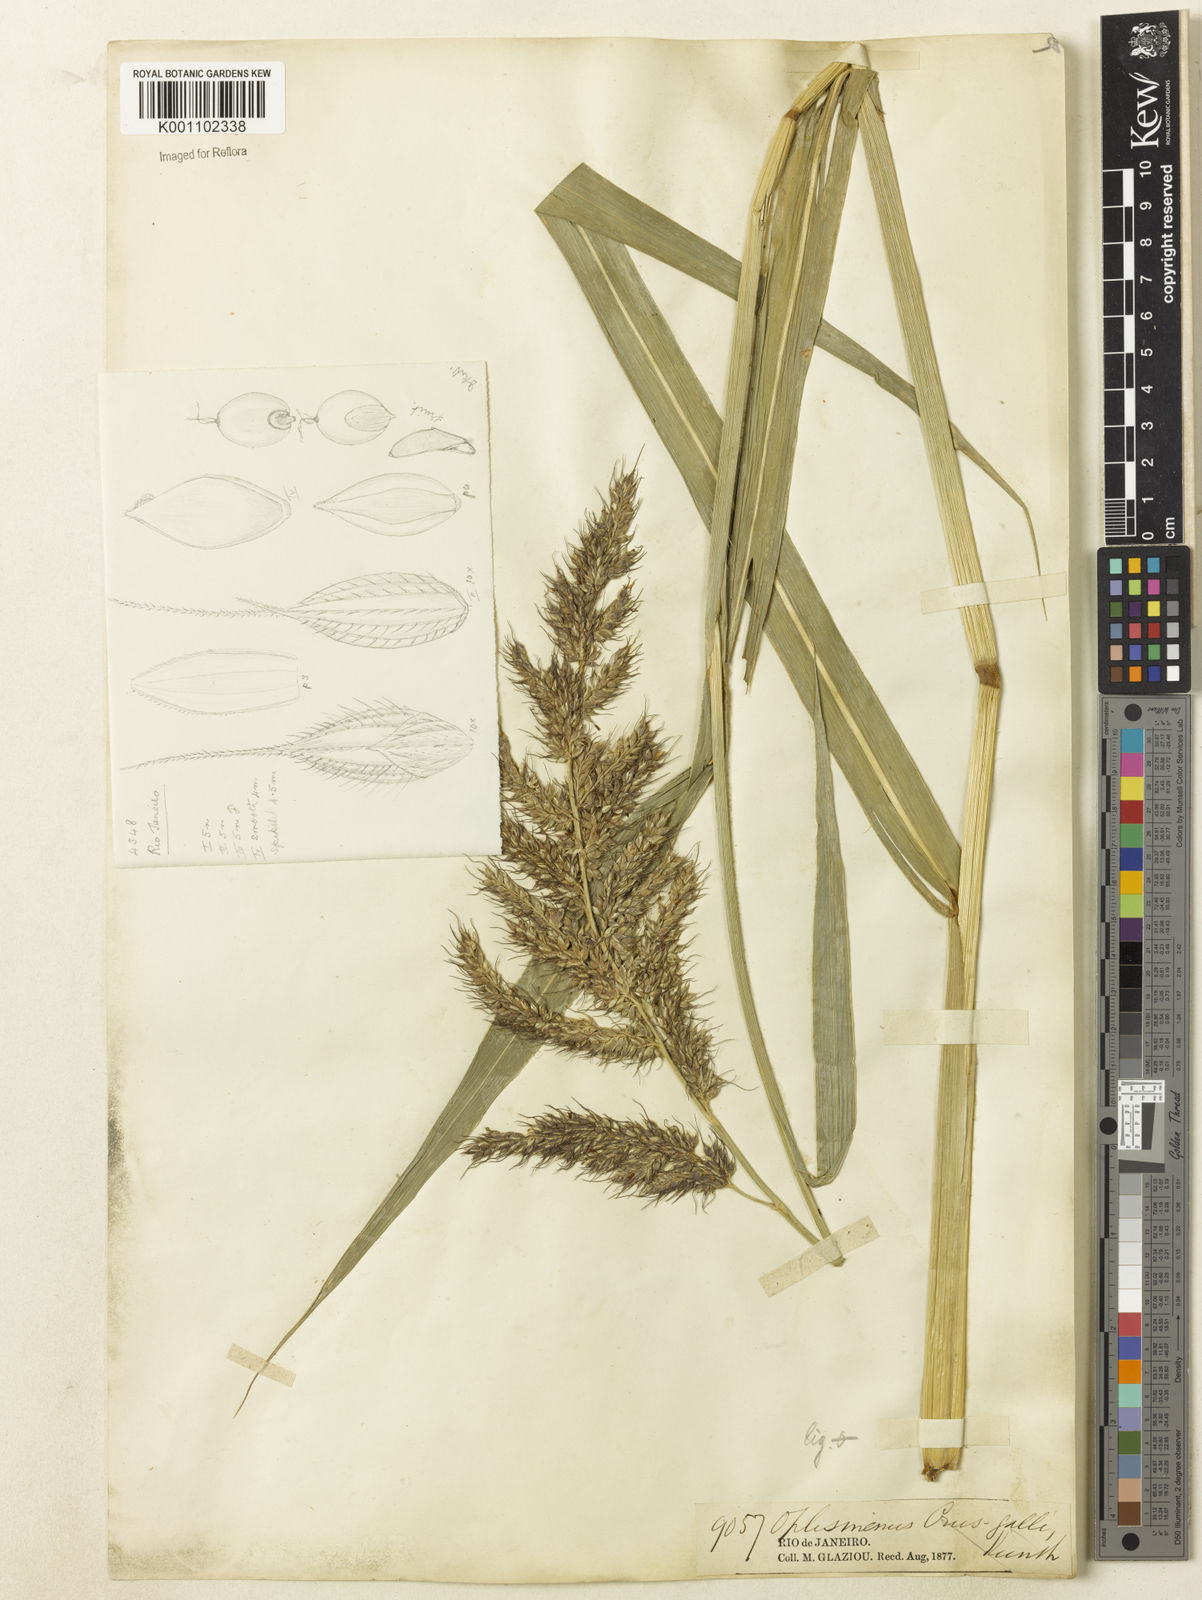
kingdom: Plantae
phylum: Tracheophyta
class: Liliopsida
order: Poales
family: Poaceae
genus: Echinochloa
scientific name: Echinochloa polystachya
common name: Creeping river grass
